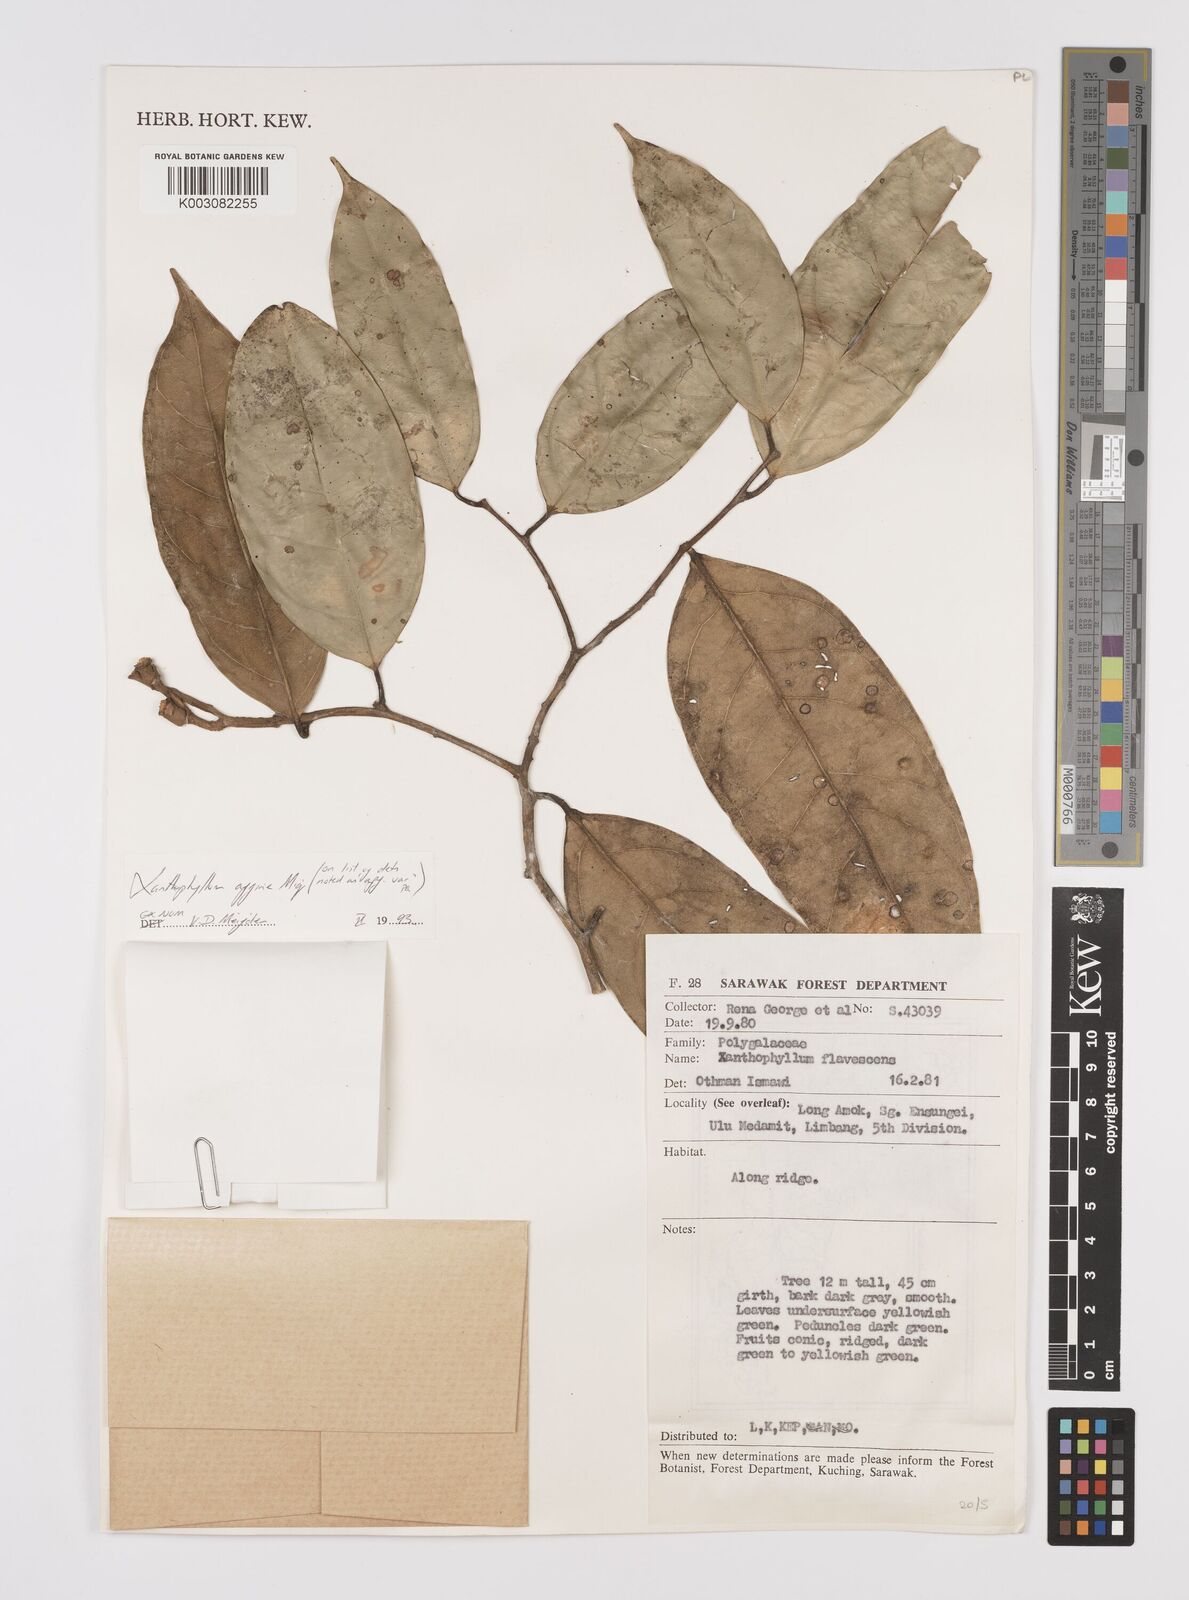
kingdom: Plantae
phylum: Tracheophyta
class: Magnoliopsida
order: Fabales
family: Polygalaceae
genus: Xanthophyllum
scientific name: Xanthophyllum flavescens
